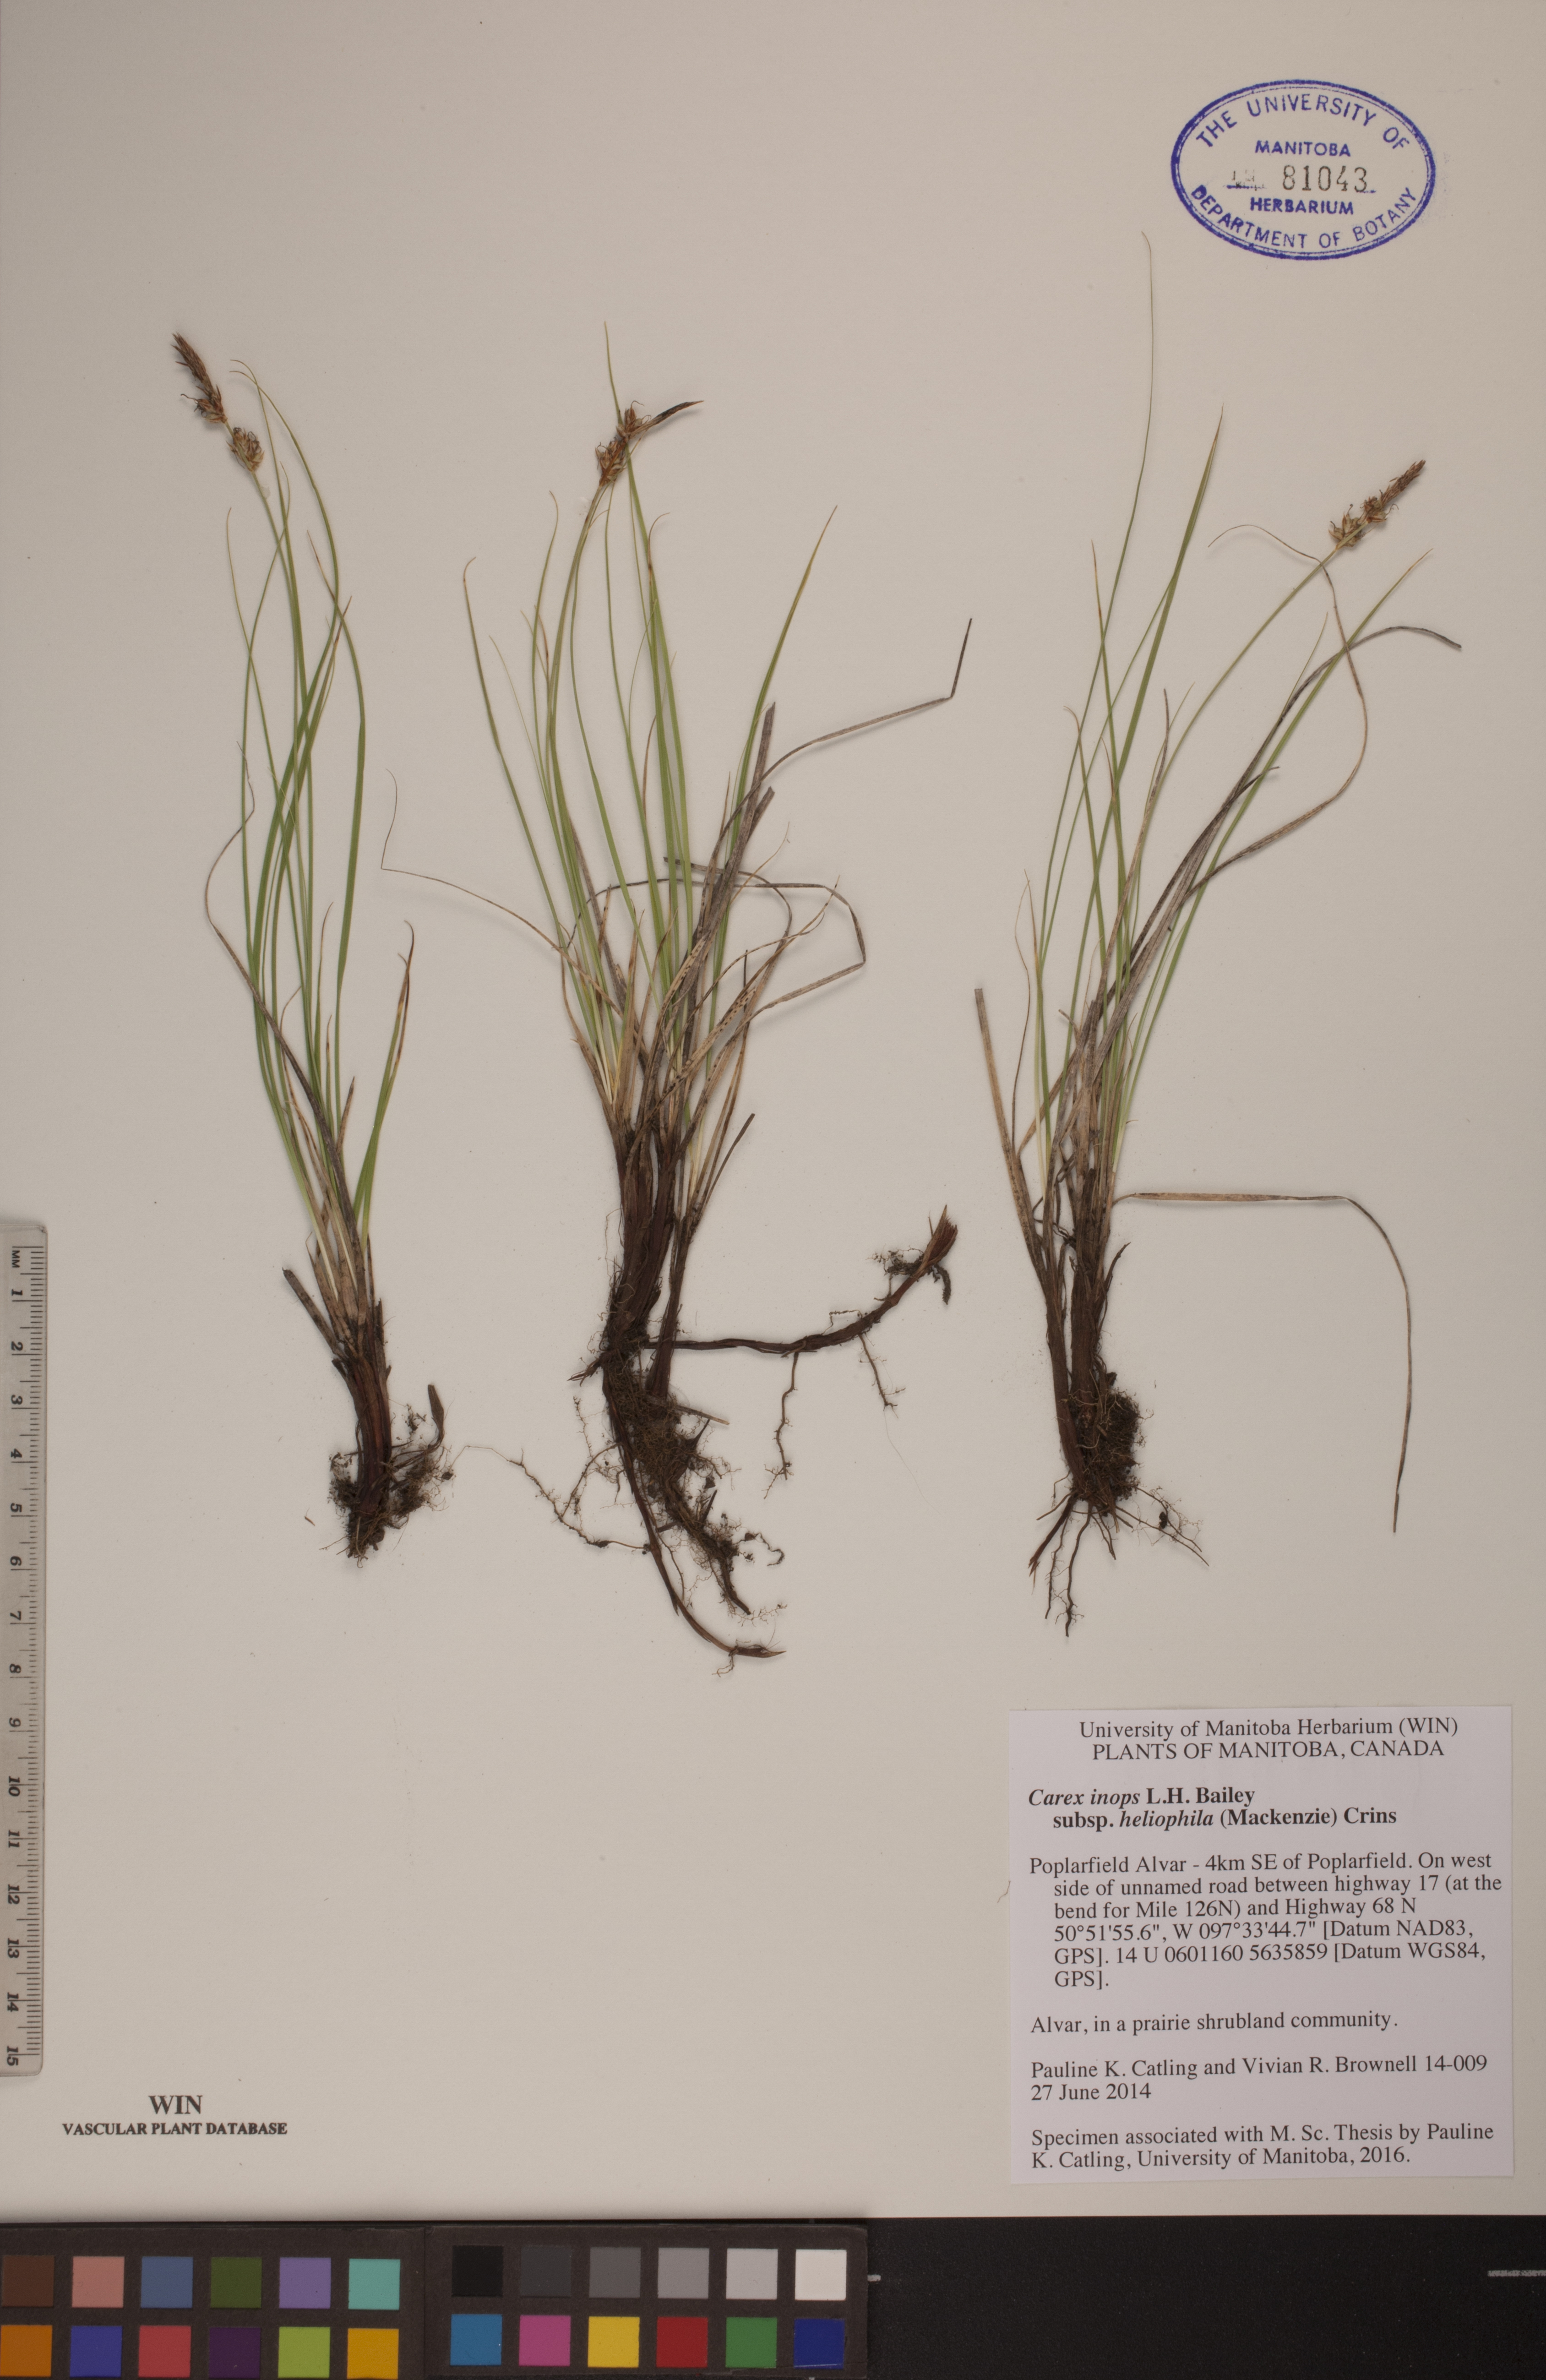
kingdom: Plantae
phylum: Tracheophyta
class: Liliopsida
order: Poales
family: Cyperaceae
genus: Carex
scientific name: Carex inops
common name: Long-stolon sedge
